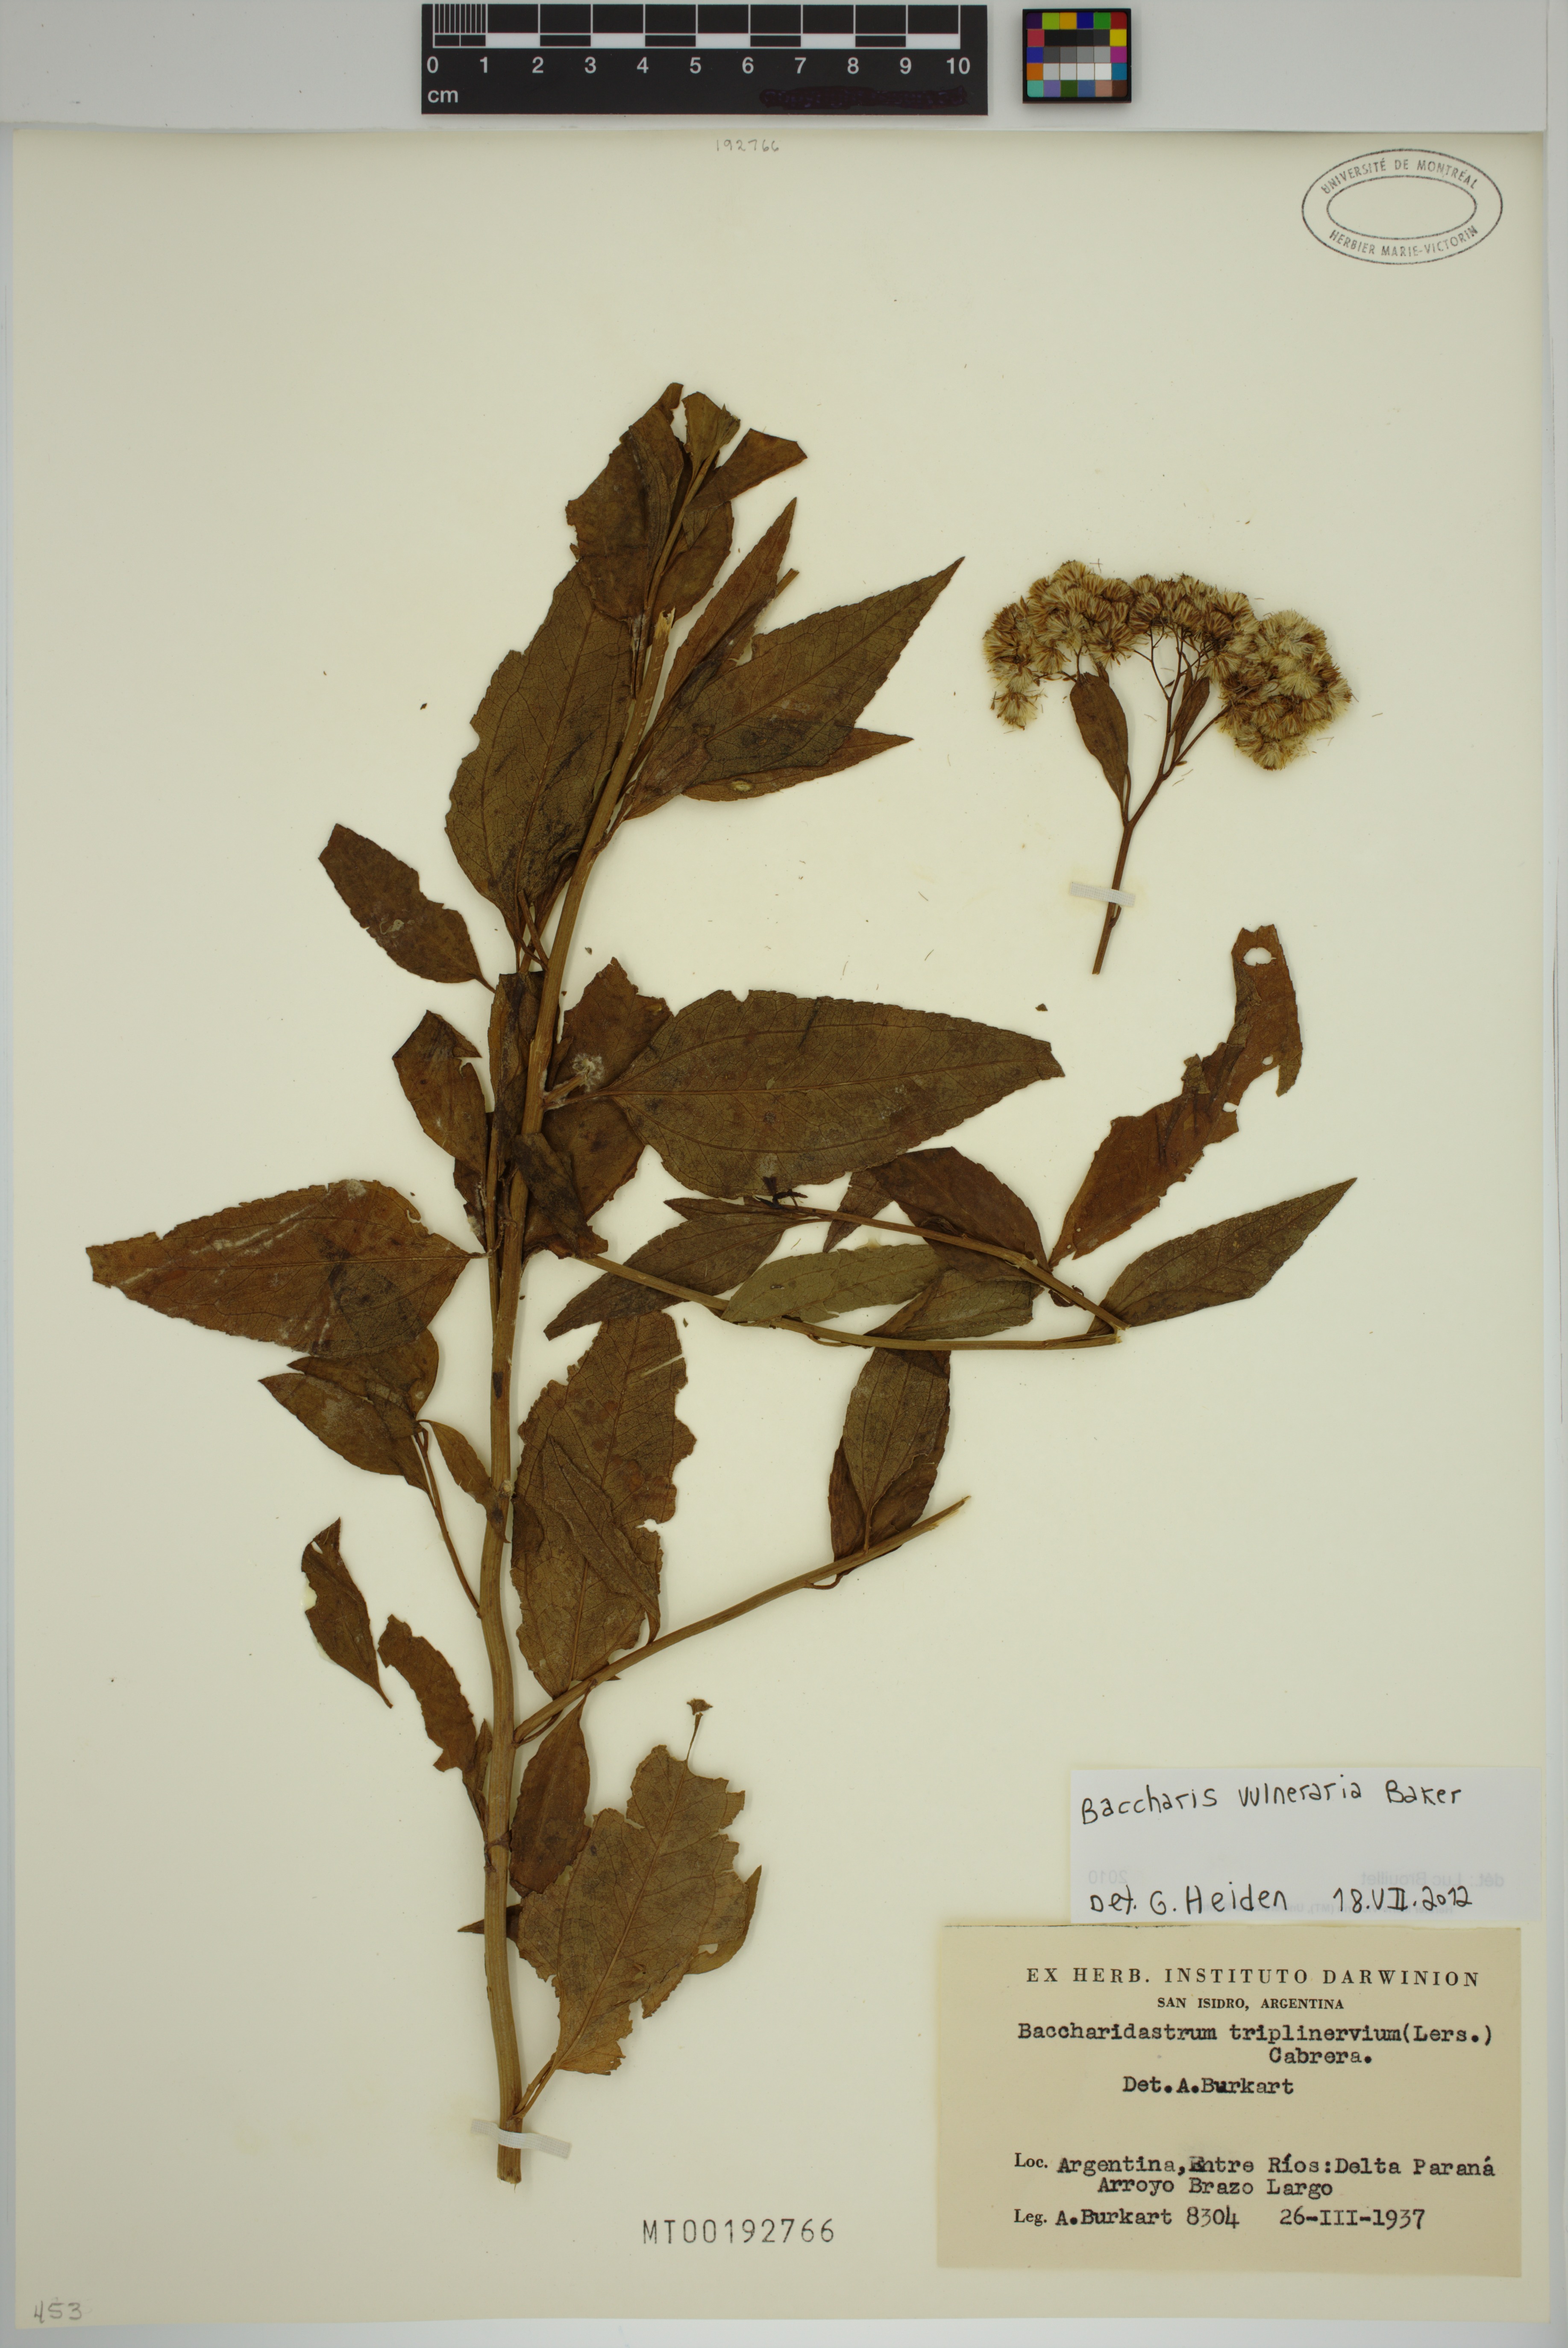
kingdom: Plantae
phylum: Tracheophyta
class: Magnoliopsida
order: Asterales
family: Asteraceae
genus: Archibaccharis
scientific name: Archibaccharis vulneraria
